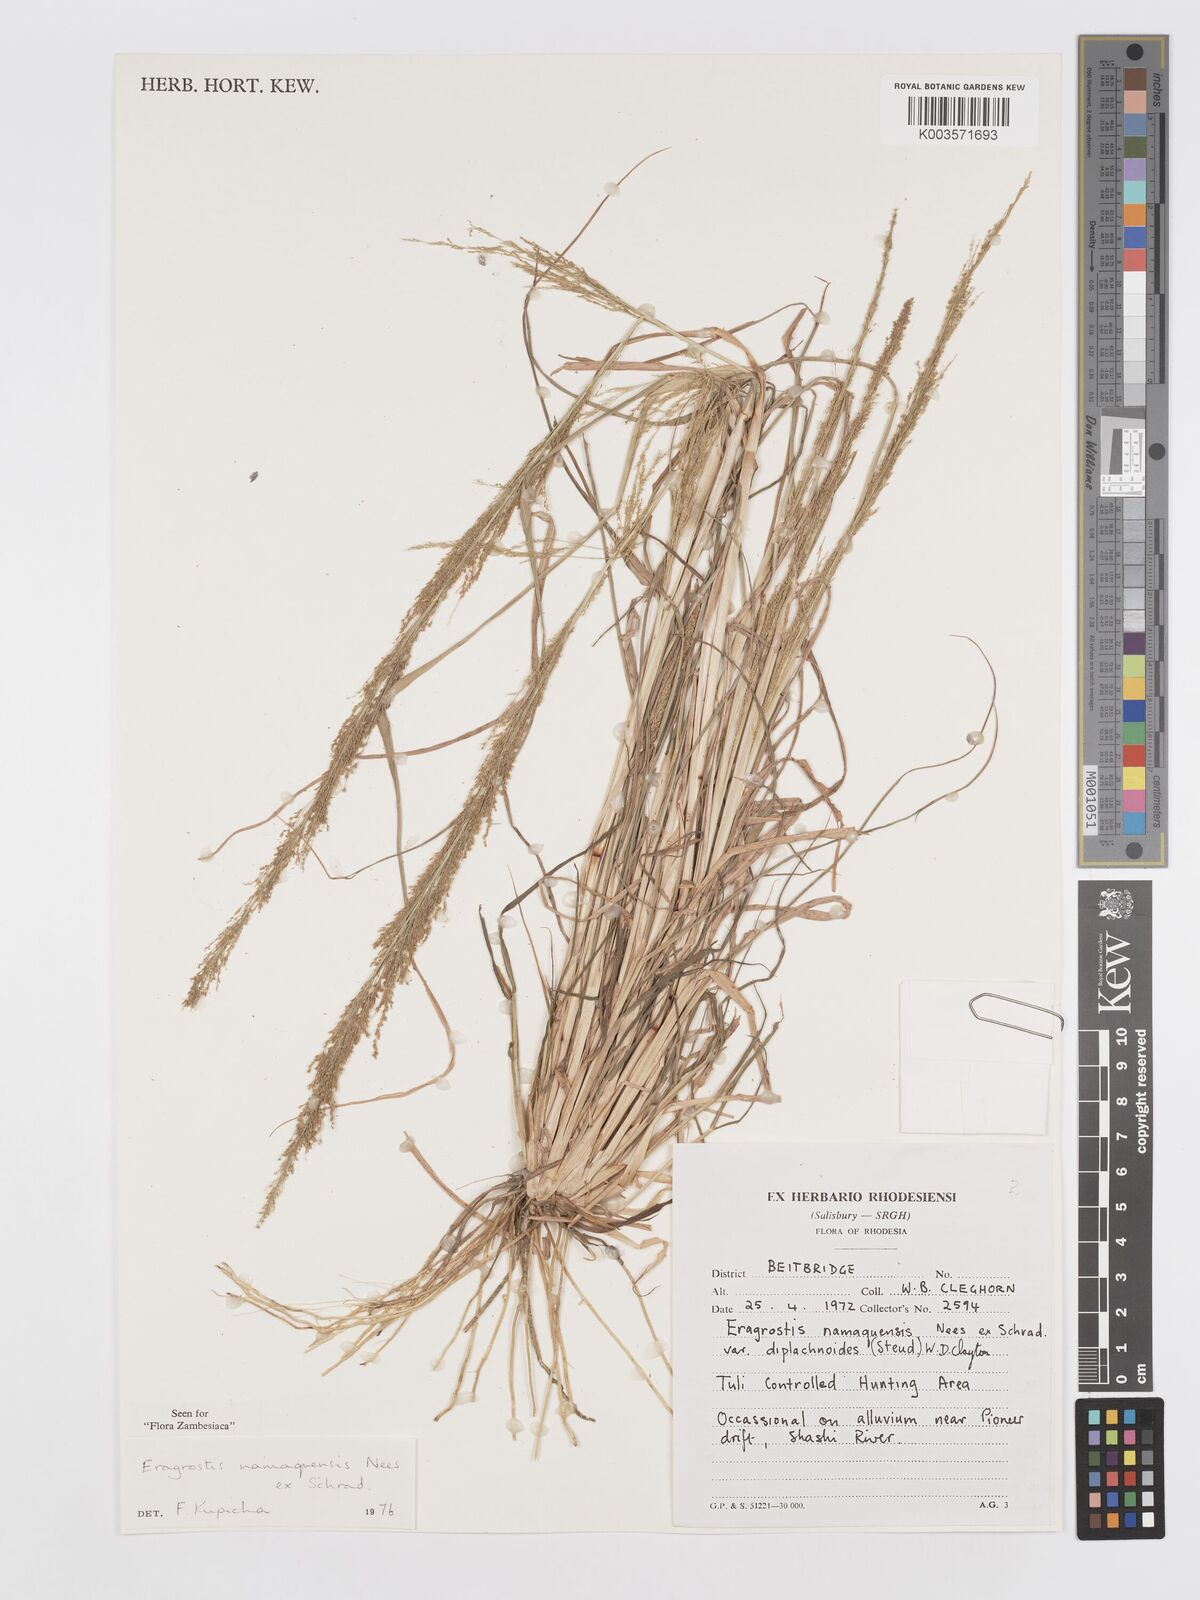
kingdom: Plantae
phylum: Tracheophyta
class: Liliopsida
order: Poales
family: Poaceae
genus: Eragrostis
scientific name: Eragrostis japonica
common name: Pond lovegrass
